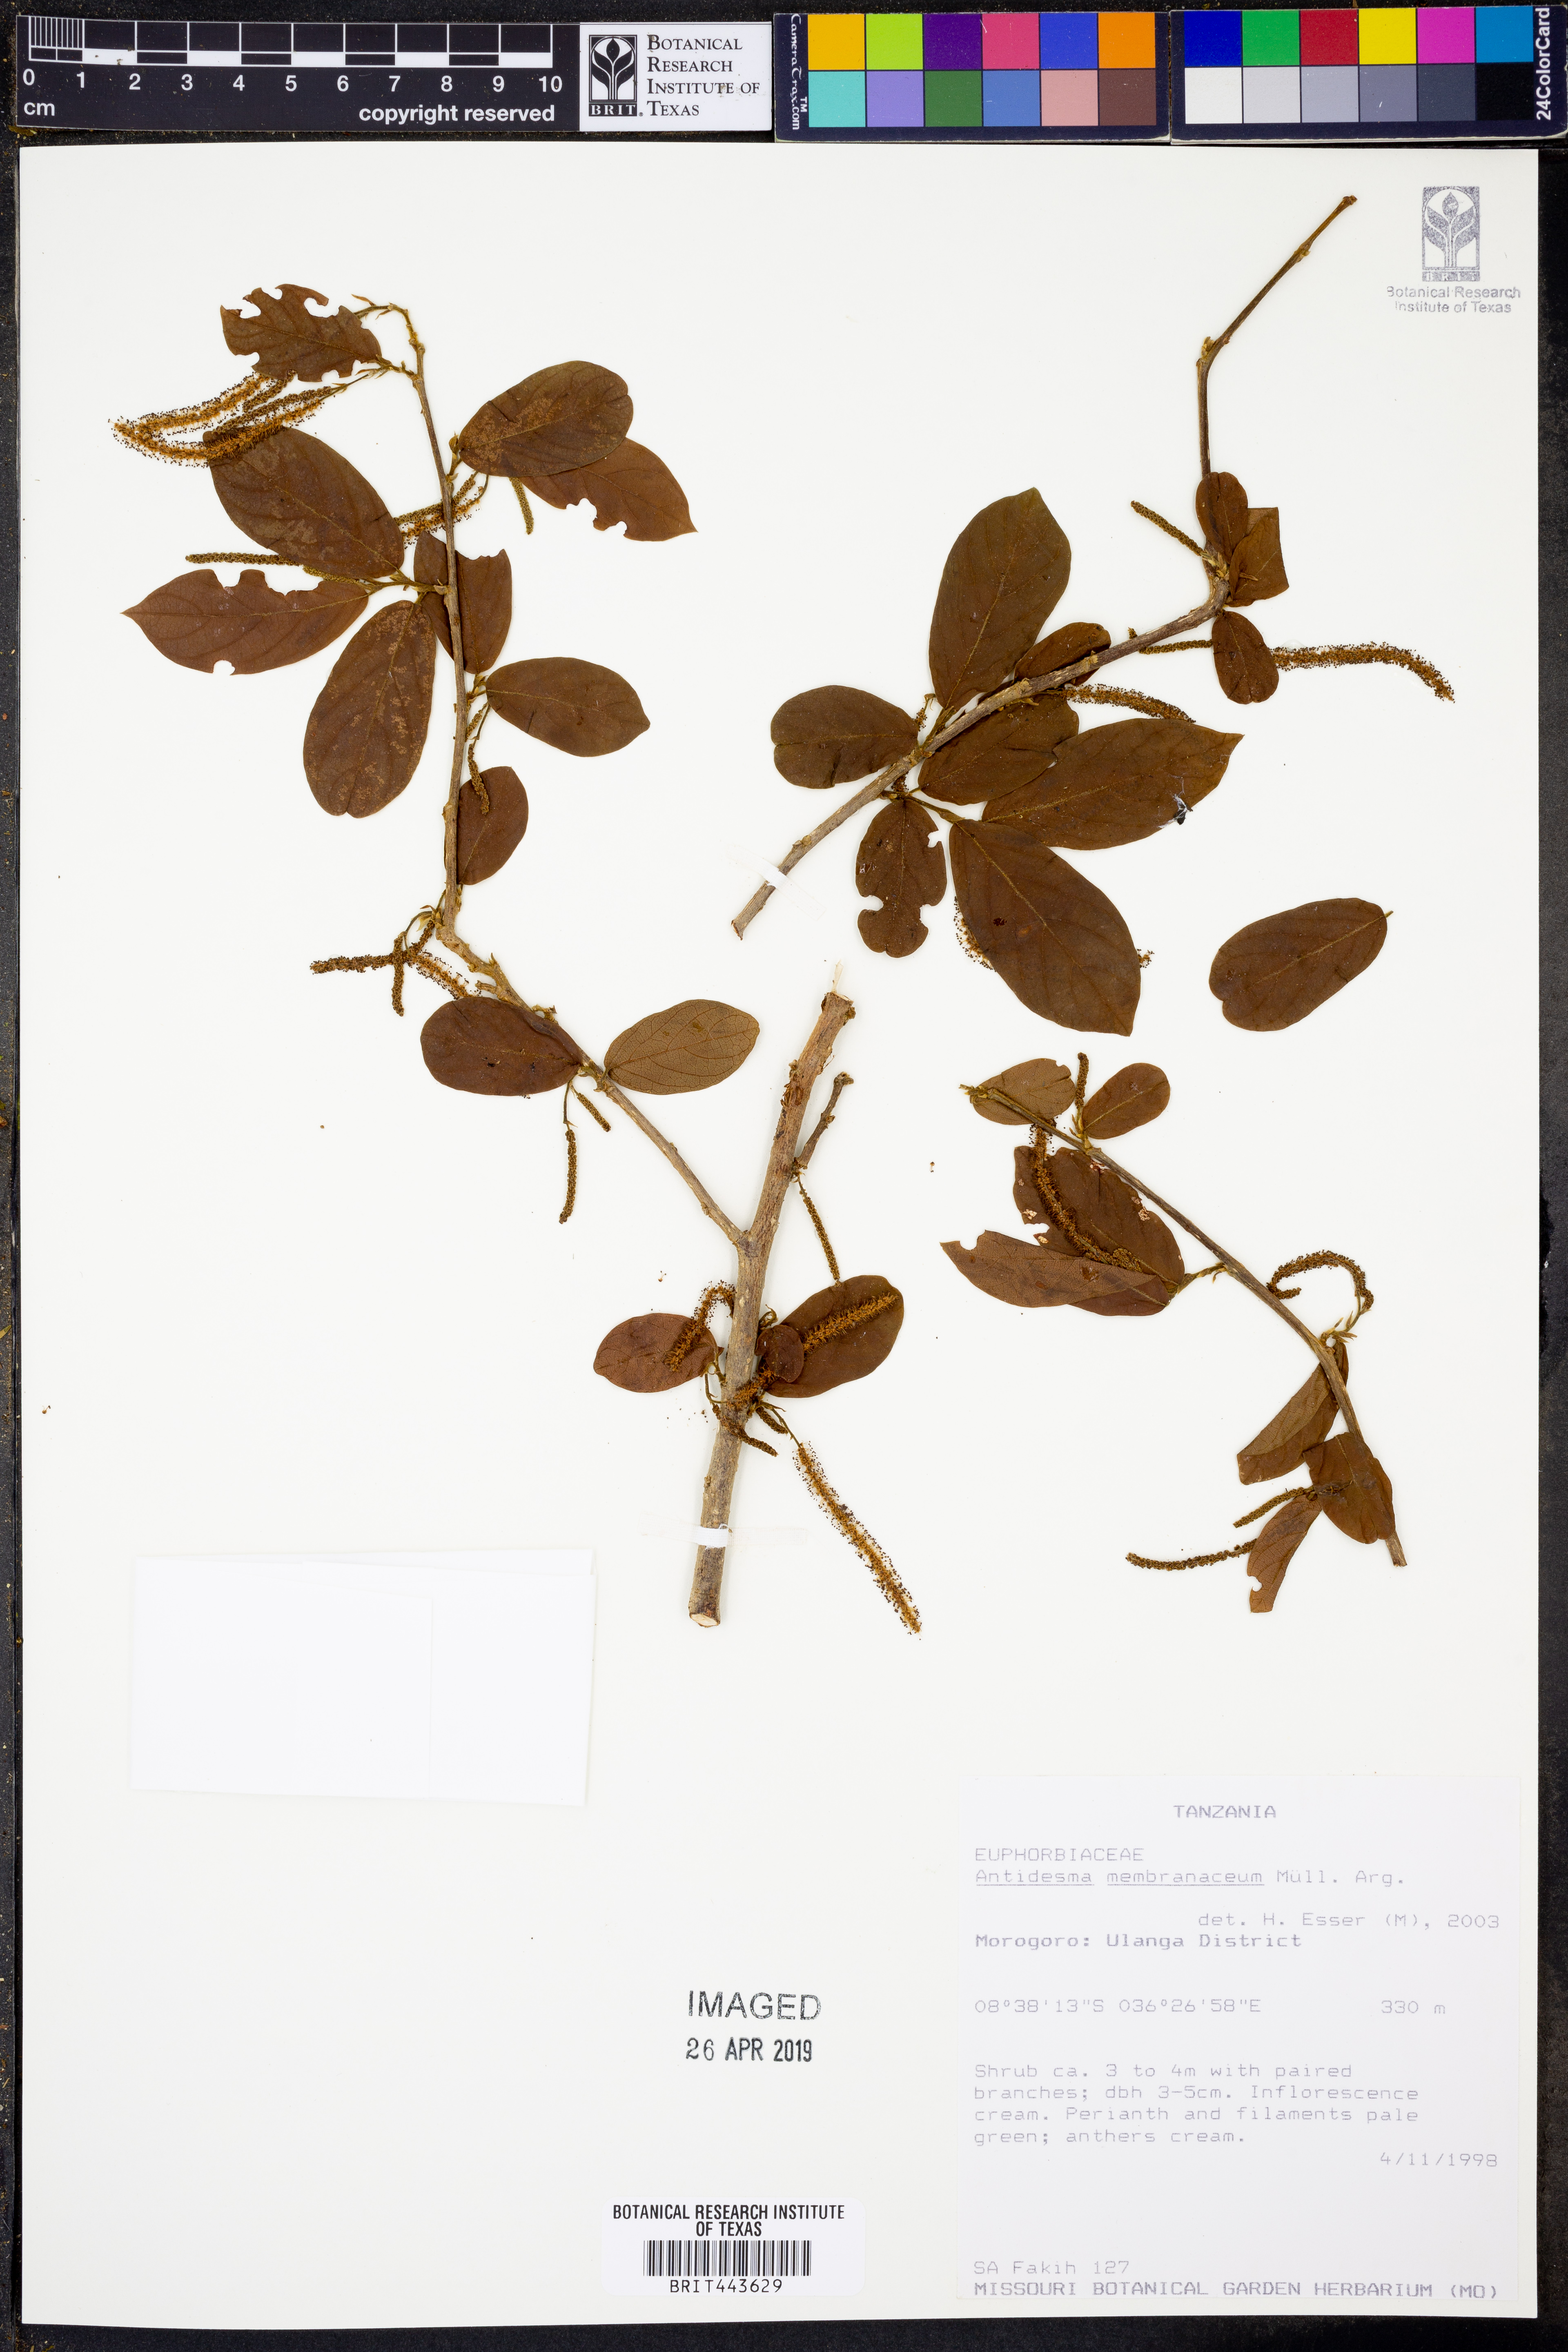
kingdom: Plantae
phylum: Tracheophyta
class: Magnoliopsida
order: Malpighiales
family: Phyllanthaceae
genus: Antidesma
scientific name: Antidesma membranaceum
